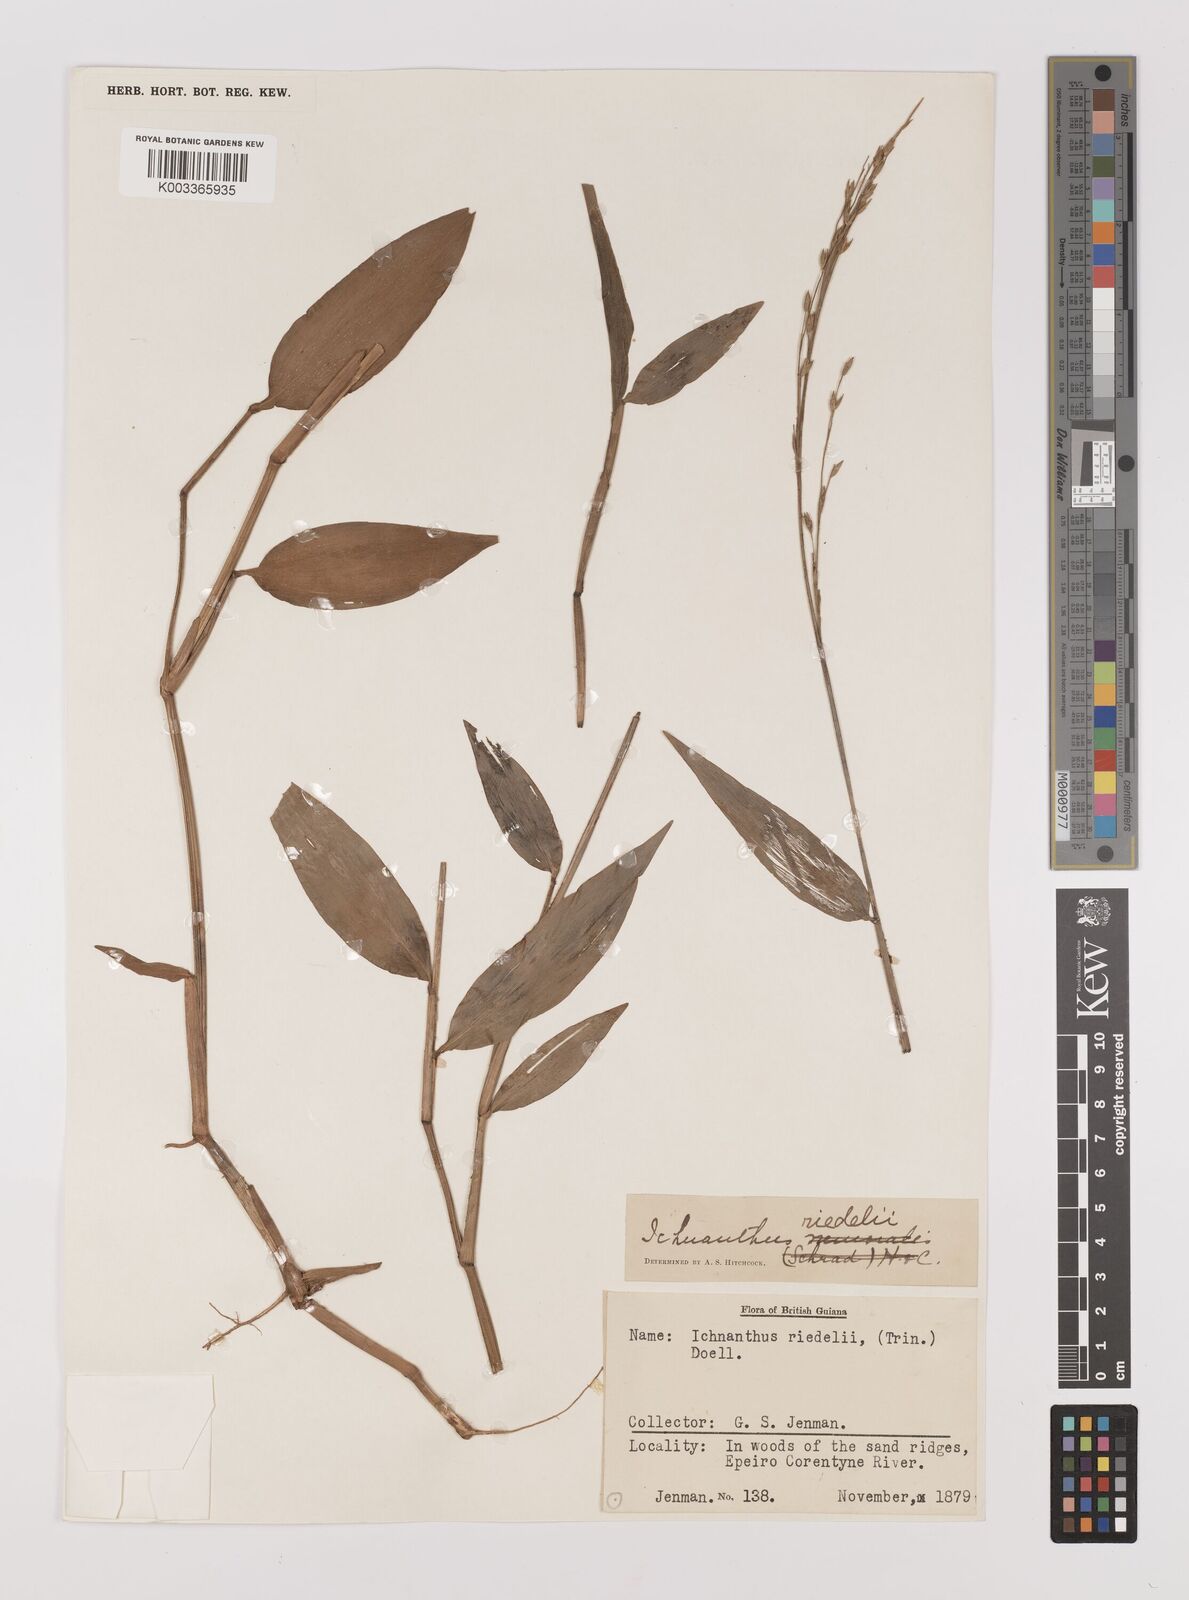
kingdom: Plantae
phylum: Tracheophyta
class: Liliopsida
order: Poales
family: Poaceae
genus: Ichnanthus
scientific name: Ichnanthus nemoralis
